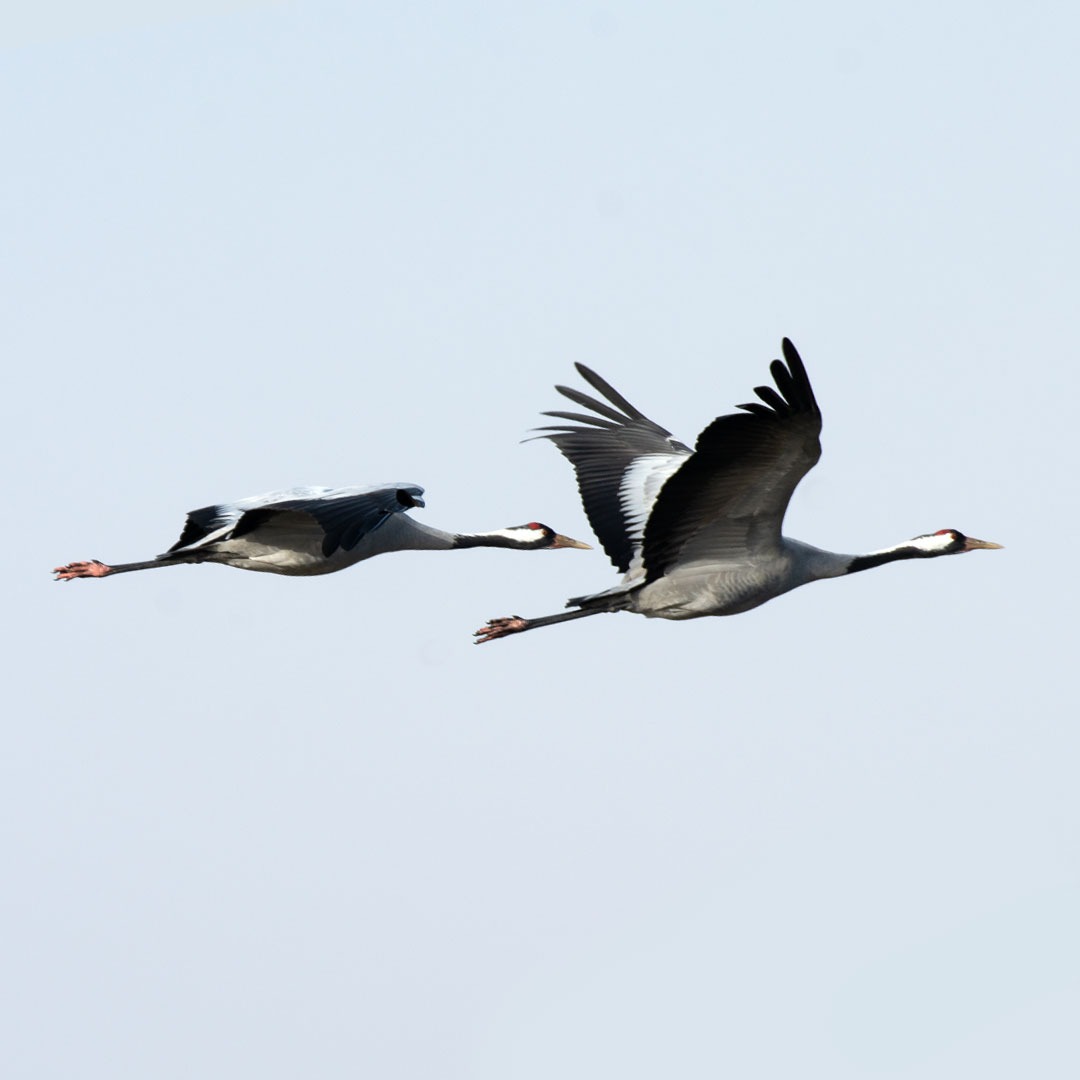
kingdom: Animalia
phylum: Chordata
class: Aves
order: Gruiformes
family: Gruidae
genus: Grus
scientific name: Grus grus
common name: Trane
